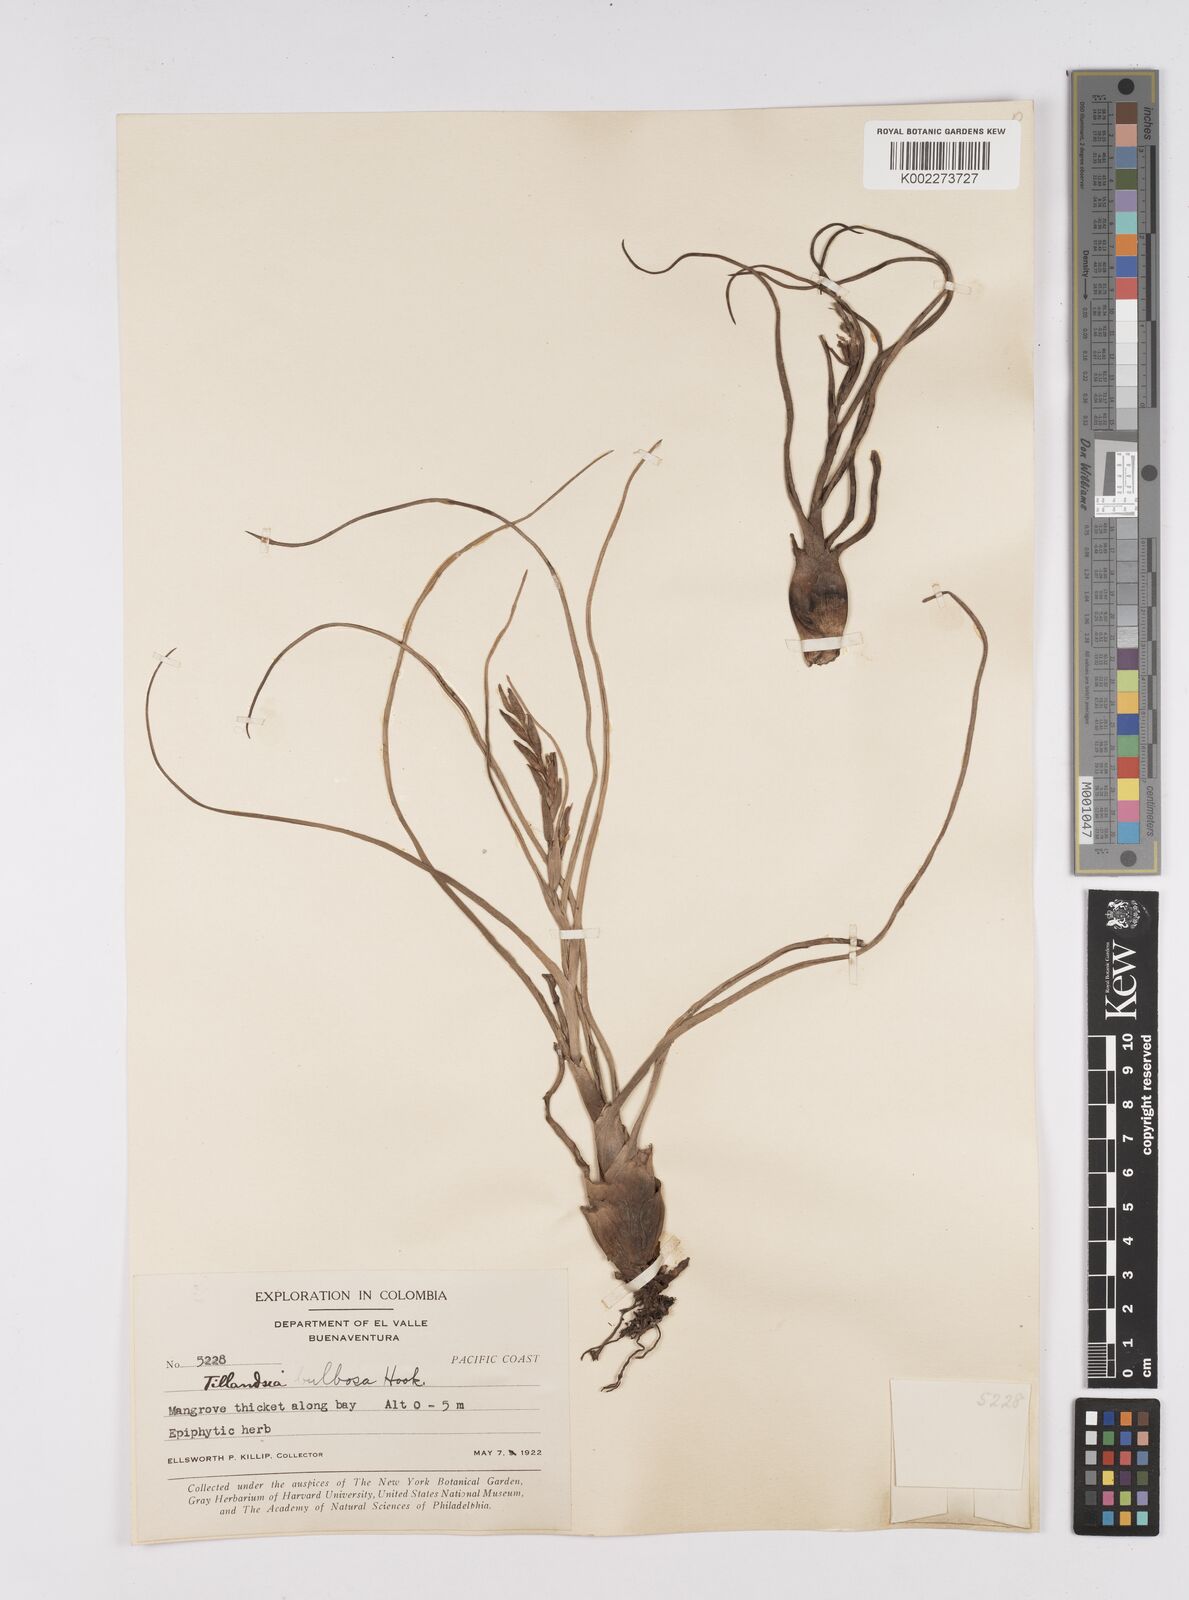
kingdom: Plantae
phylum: Tracheophyta
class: Liliopsida
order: Poales
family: Bromeliaceae
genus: Tillandsia
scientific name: Tillandsia bulbosa
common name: Bulbous airplant
